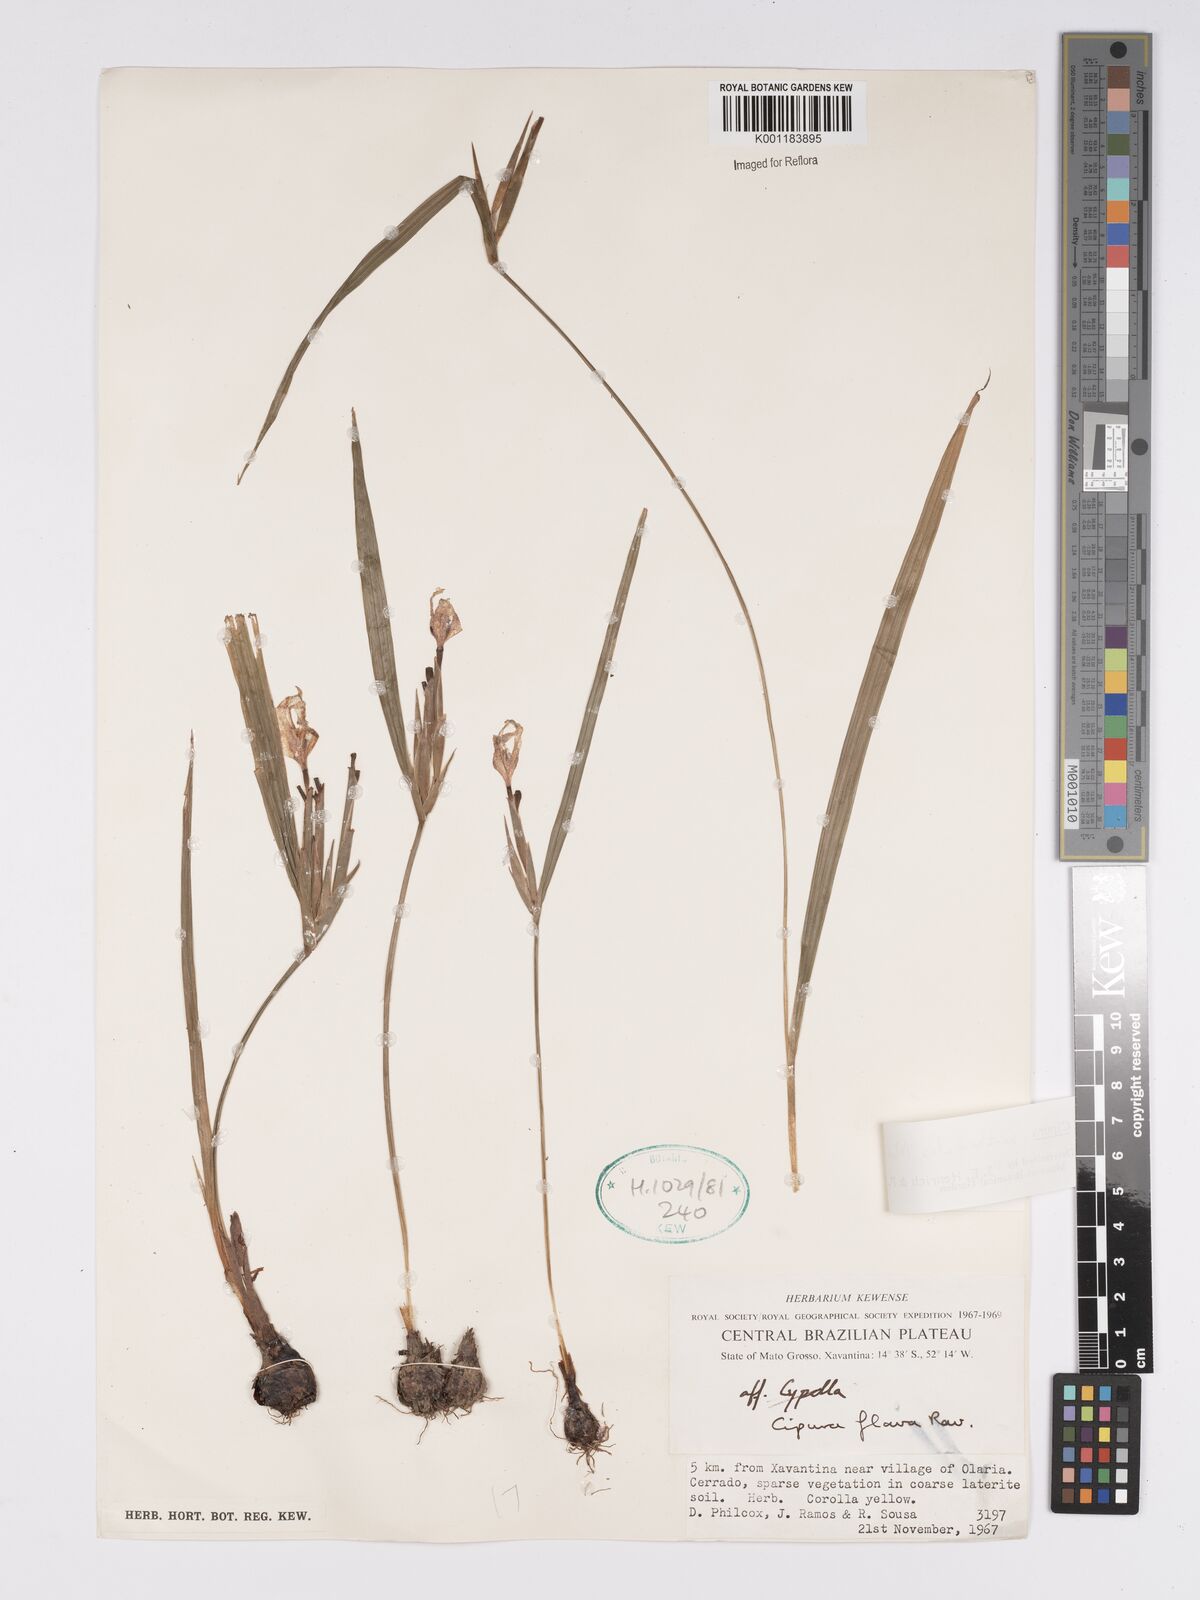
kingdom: Plantae
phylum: Tracheophyta
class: Liliopsida
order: Asparagales
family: Iridaceae
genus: Cipura
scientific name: Cipura xanthomelas
